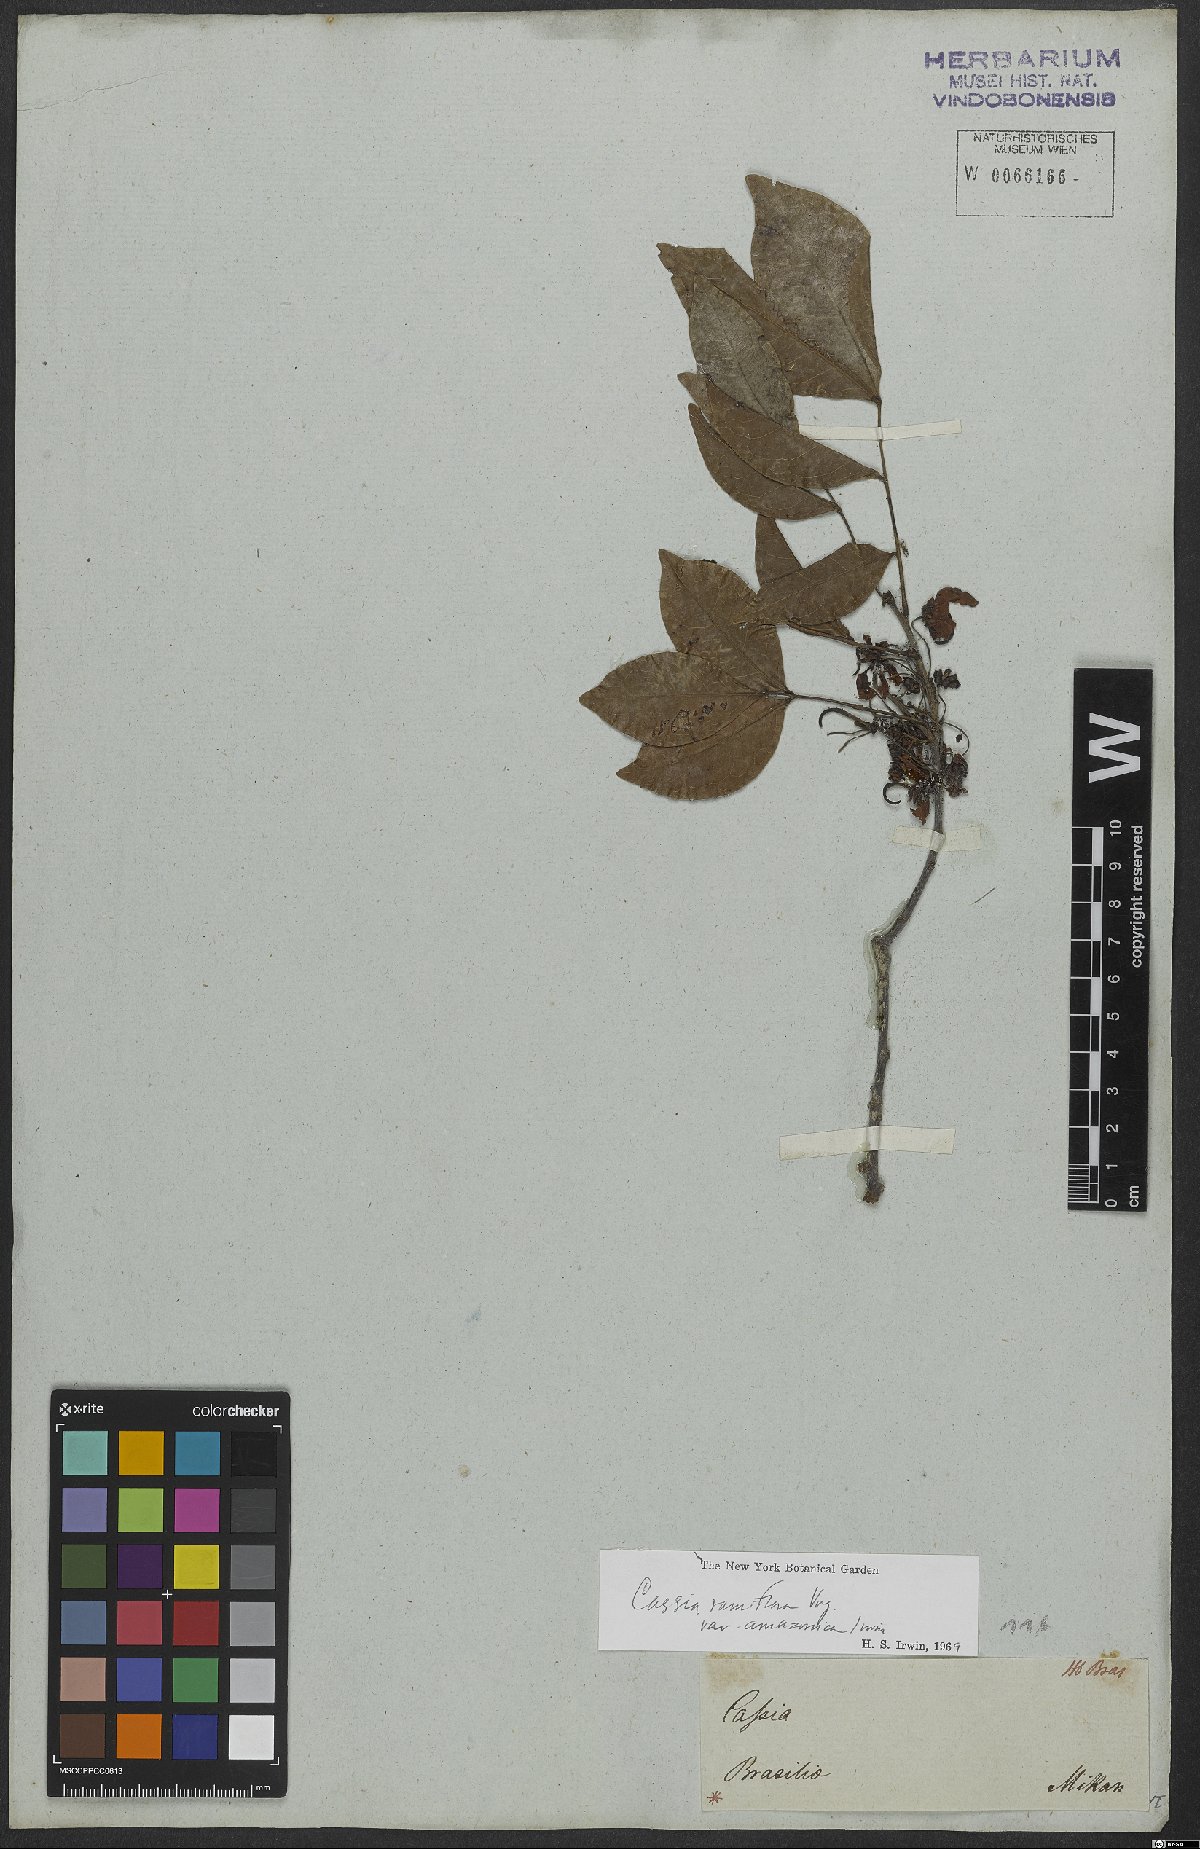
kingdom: Plantae
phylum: Tracheophyta
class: Magnoliopsida
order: Fabales
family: Fabaceae
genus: Chamaecrista
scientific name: Chamaecrista ensiformis
